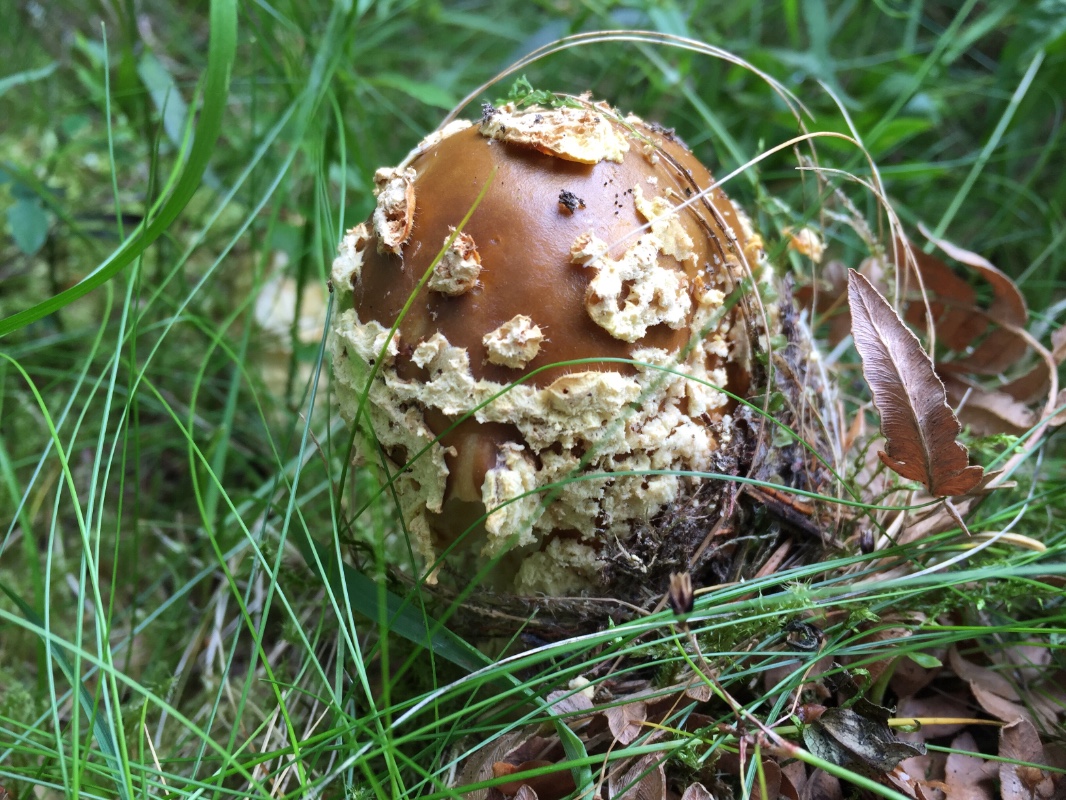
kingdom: Fungi
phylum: Basidiomycota
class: Agaricomycetes
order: Agaricales
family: Amanitaceae
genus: Amanita
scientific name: Amanita regalis
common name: brun fluesvamp
